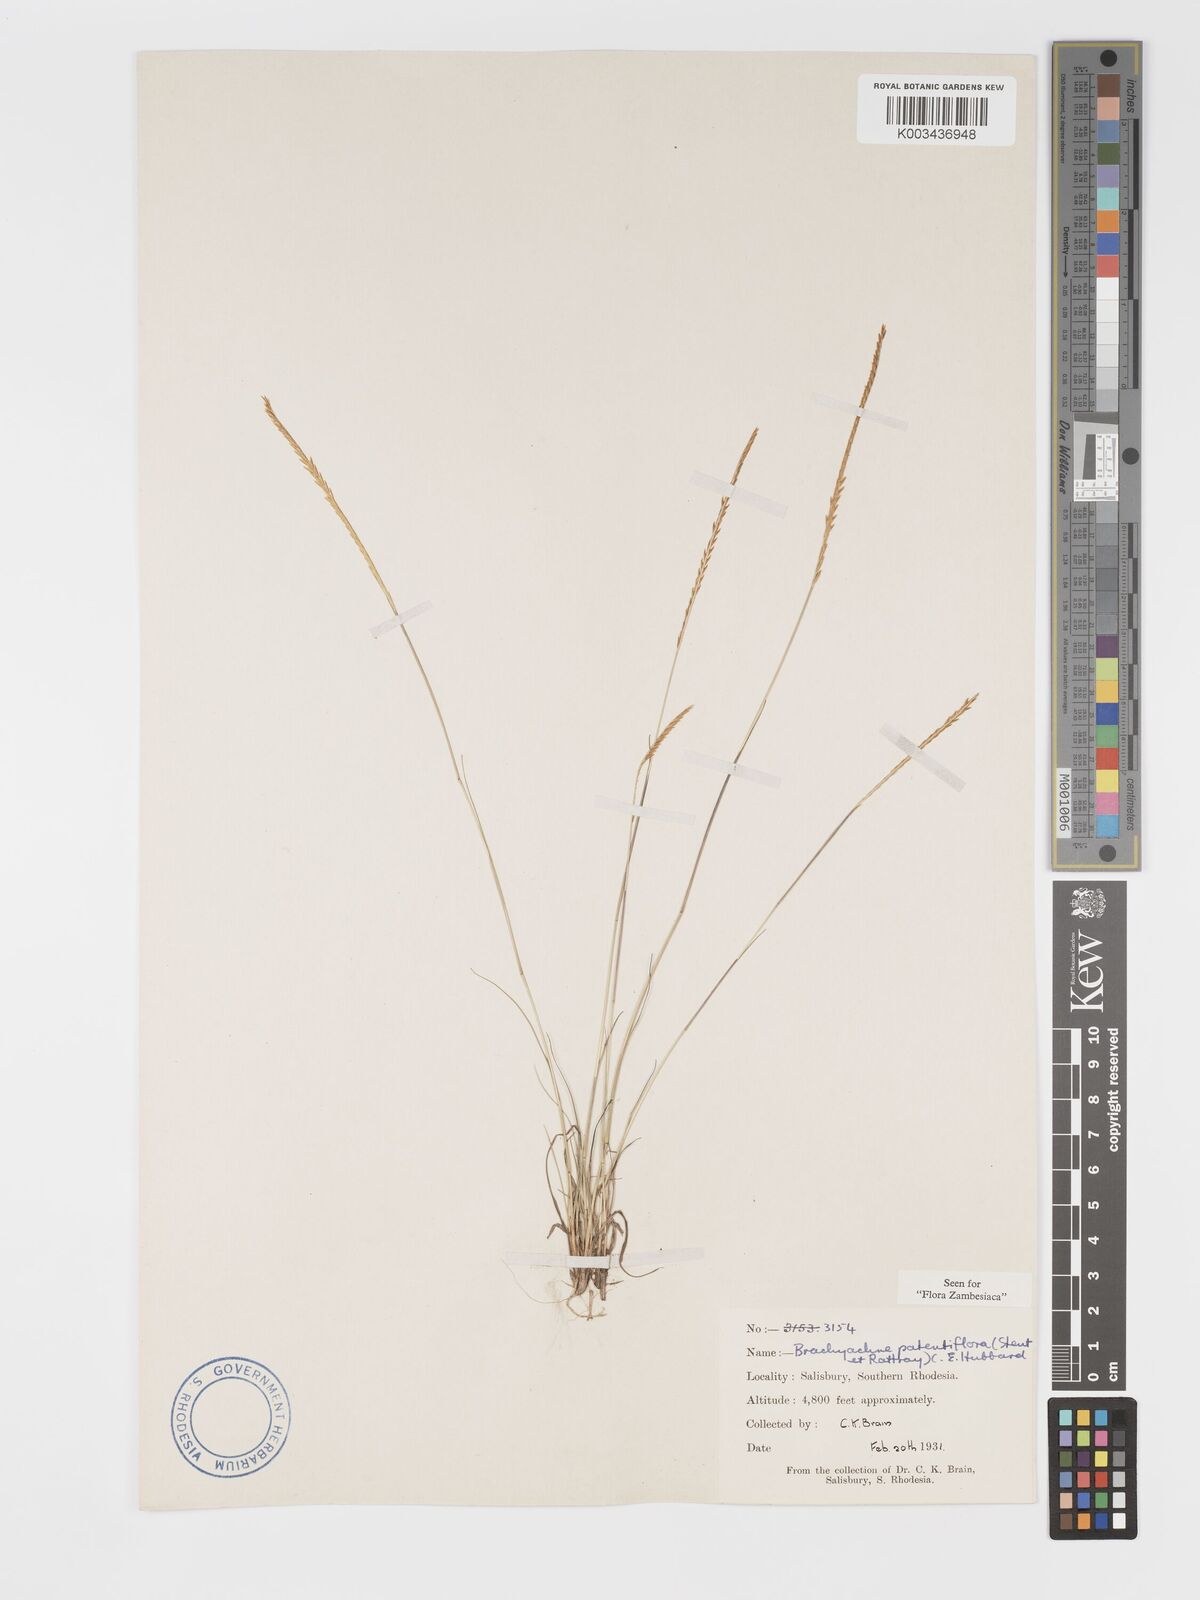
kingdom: Plantae
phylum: Tracheophyta
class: Liliopsida
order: Poales
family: Poaceae
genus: Micrachne
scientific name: Micrachne patentiflora
